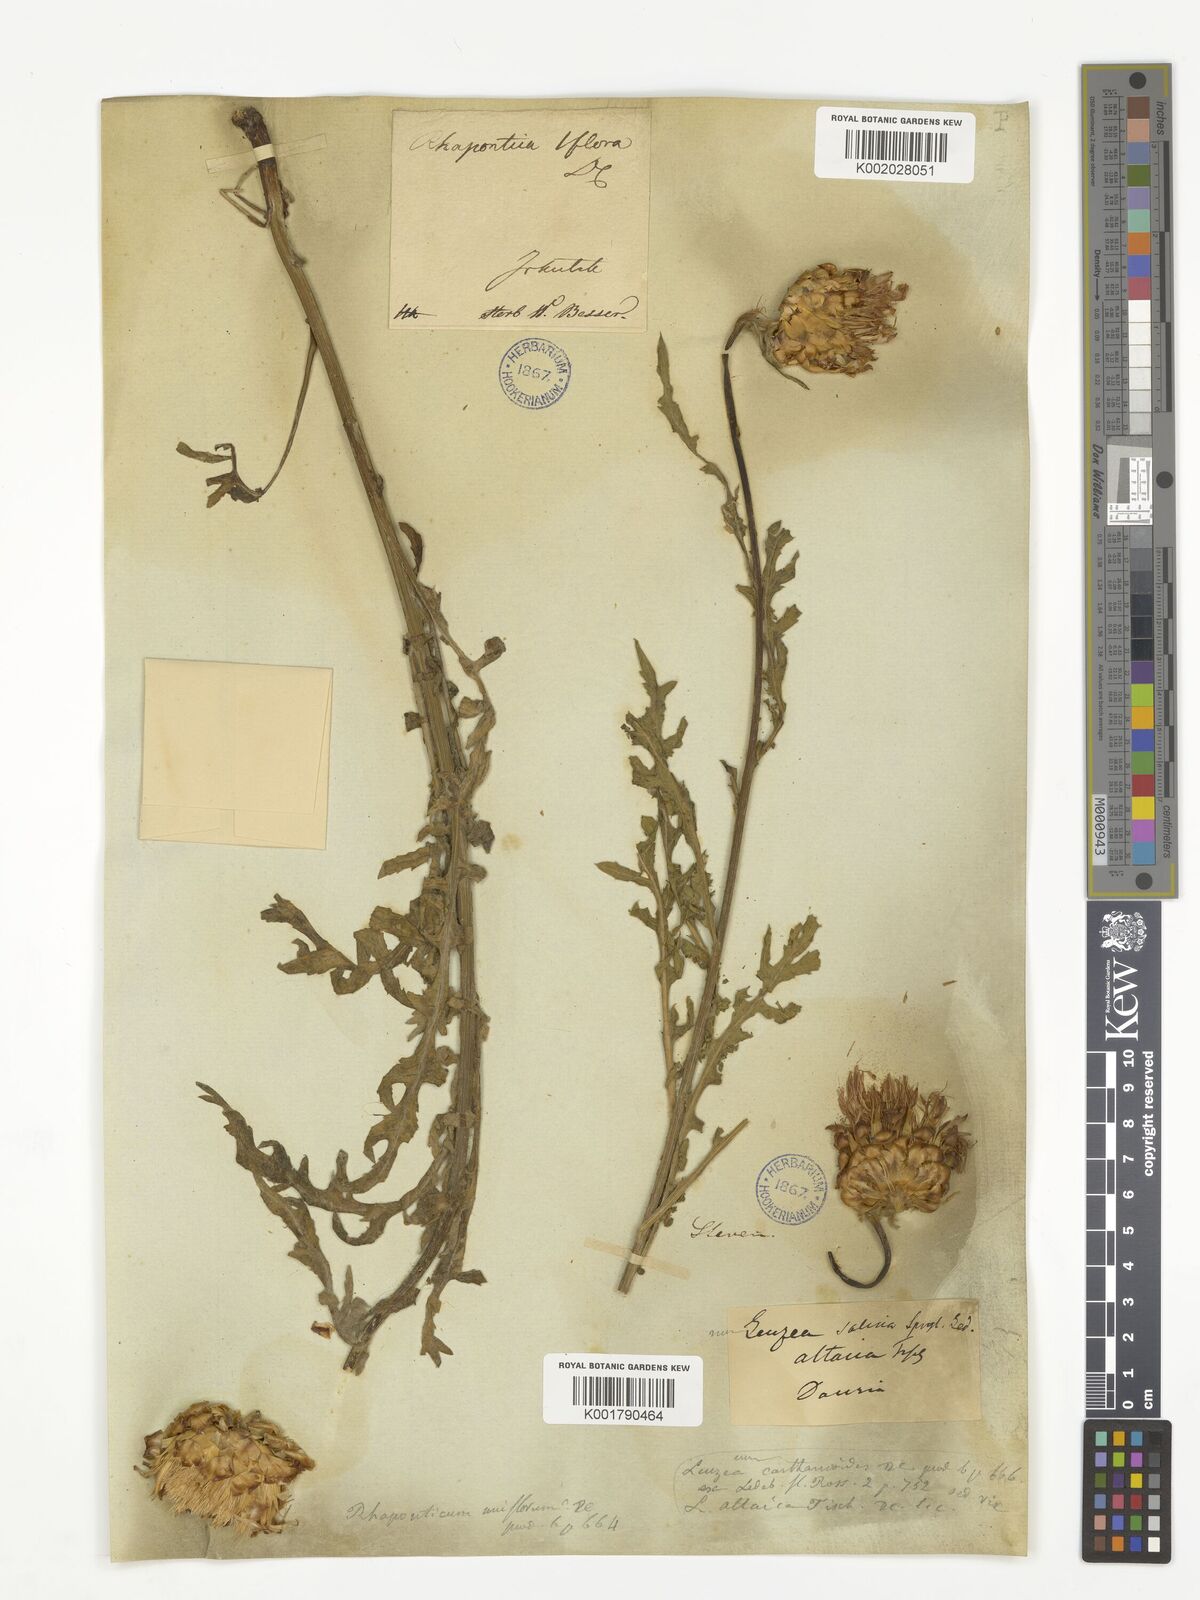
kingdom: Plantae
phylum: Tracheophyta
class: Magnoliopsida
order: Asterales
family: Asteraceae
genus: Rhaponticum
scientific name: Rhaponticum
